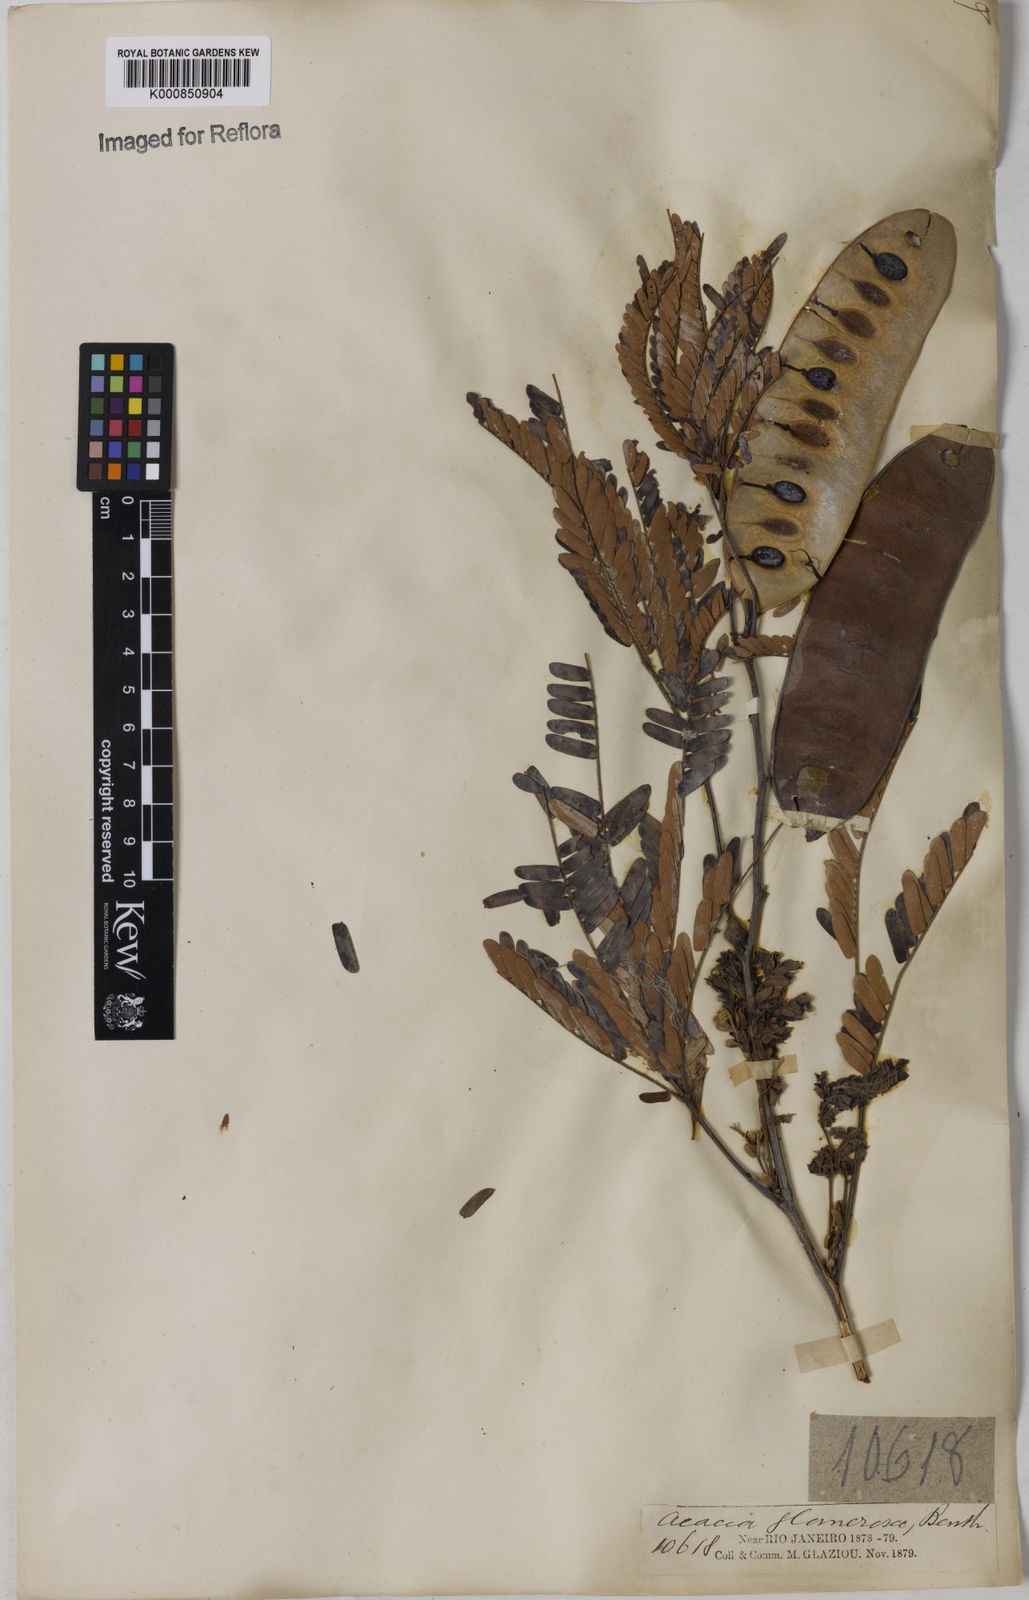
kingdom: Plantae
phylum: Tracheophyta
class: Magnoliopsida
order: Fabales
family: Fabaceae
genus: Senegalia
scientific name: Senegalia polyphylla
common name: White-tamarind
